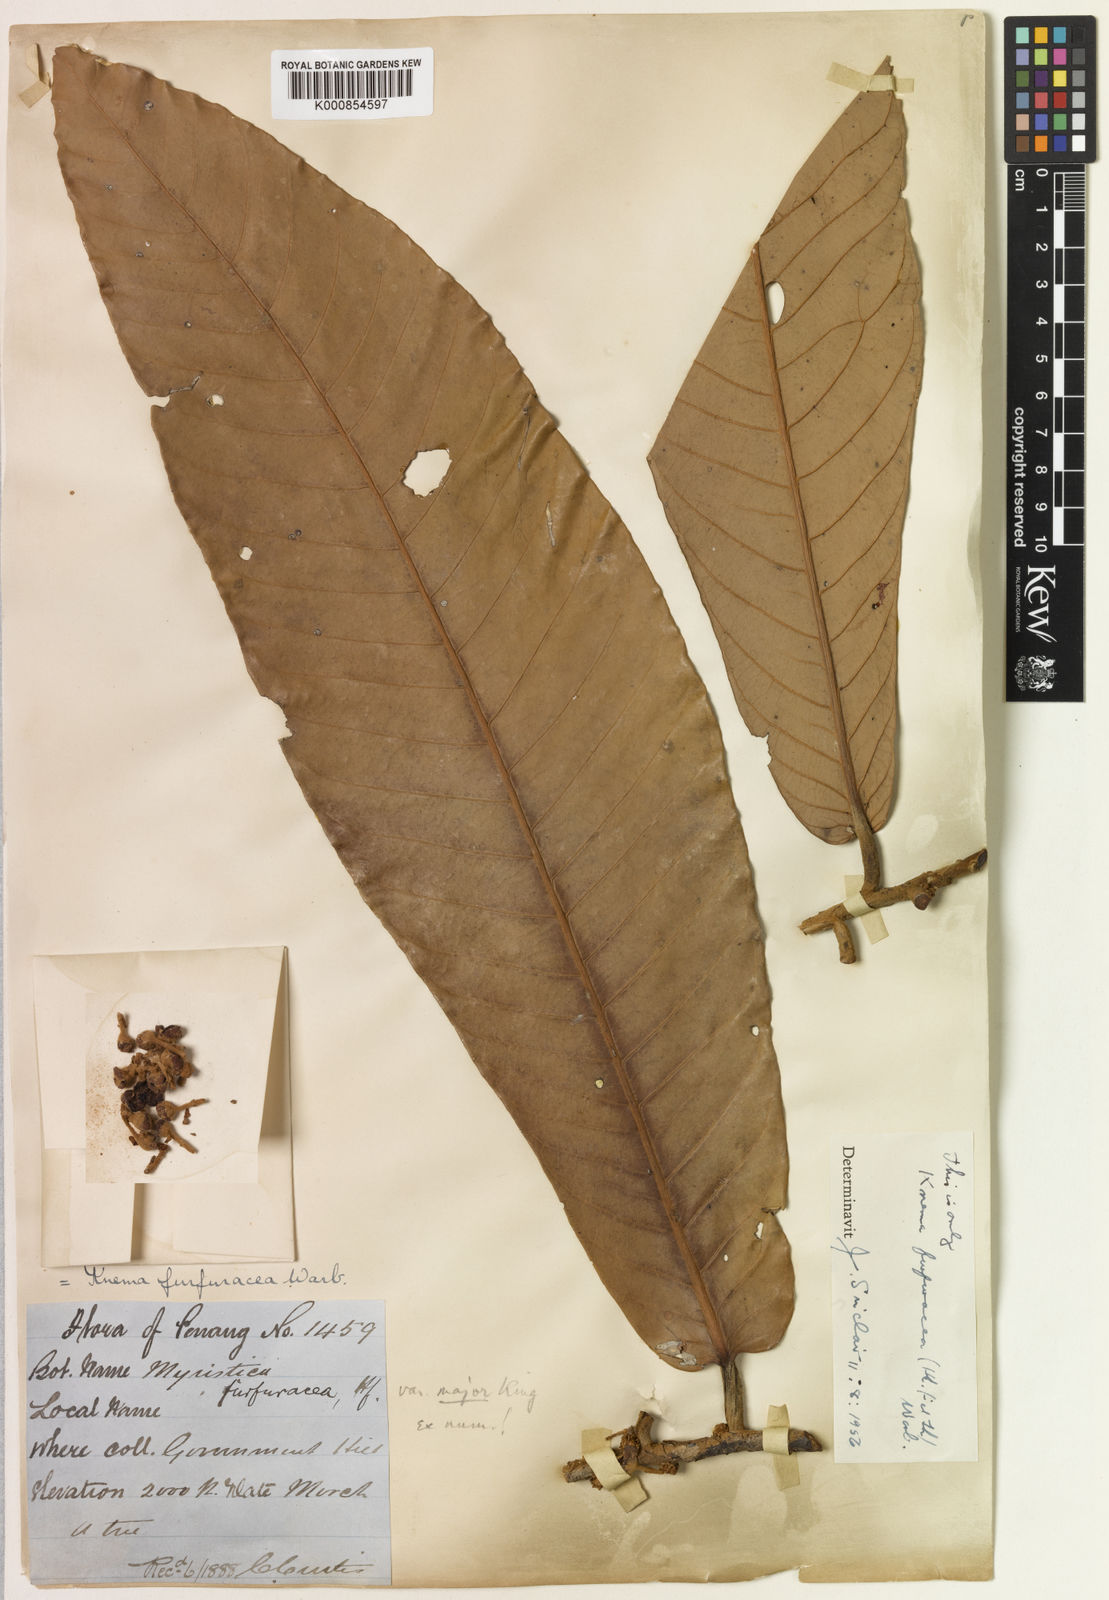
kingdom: Plantae
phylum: Tracheophyta
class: Magnoliopsida
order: Magnoliales
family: Myristicaceae
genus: Knema
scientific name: Knema furfuracea
